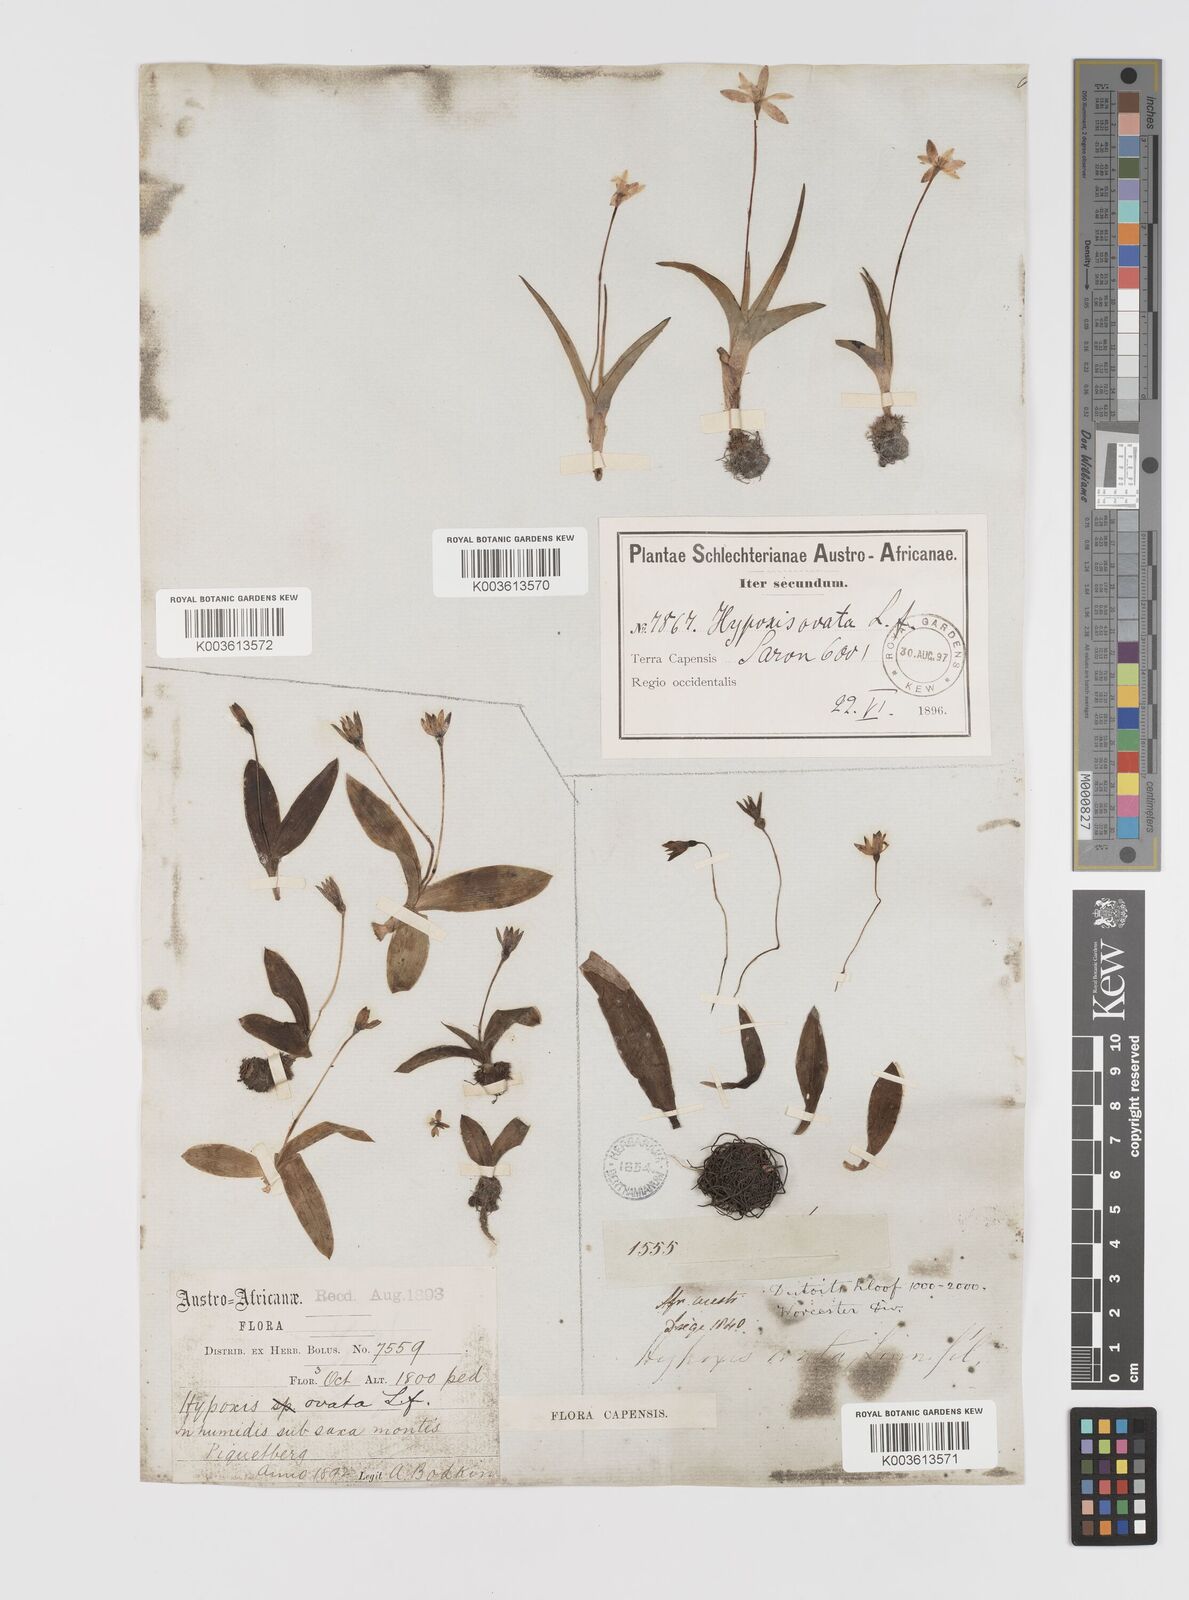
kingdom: Plantae
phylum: Tracheophyta
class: Liliopsida
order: Asparagales
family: Hypoxidaceae
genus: Pauridia
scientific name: Pauridia ovata
